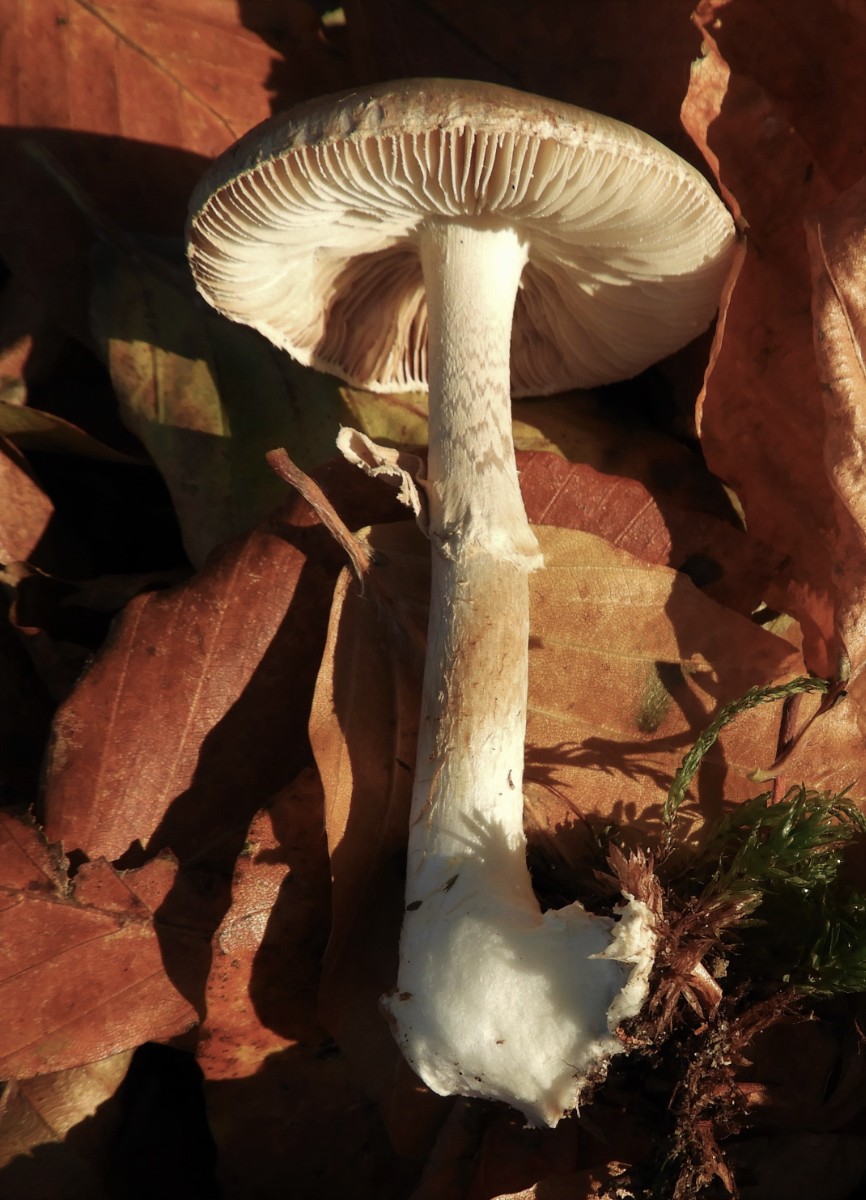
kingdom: Fungi
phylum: Basidiomycota
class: Agaricomycetes
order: Agaricales
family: Amanitaceae
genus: Amanita
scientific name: Amanita citrina
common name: False death-cap
